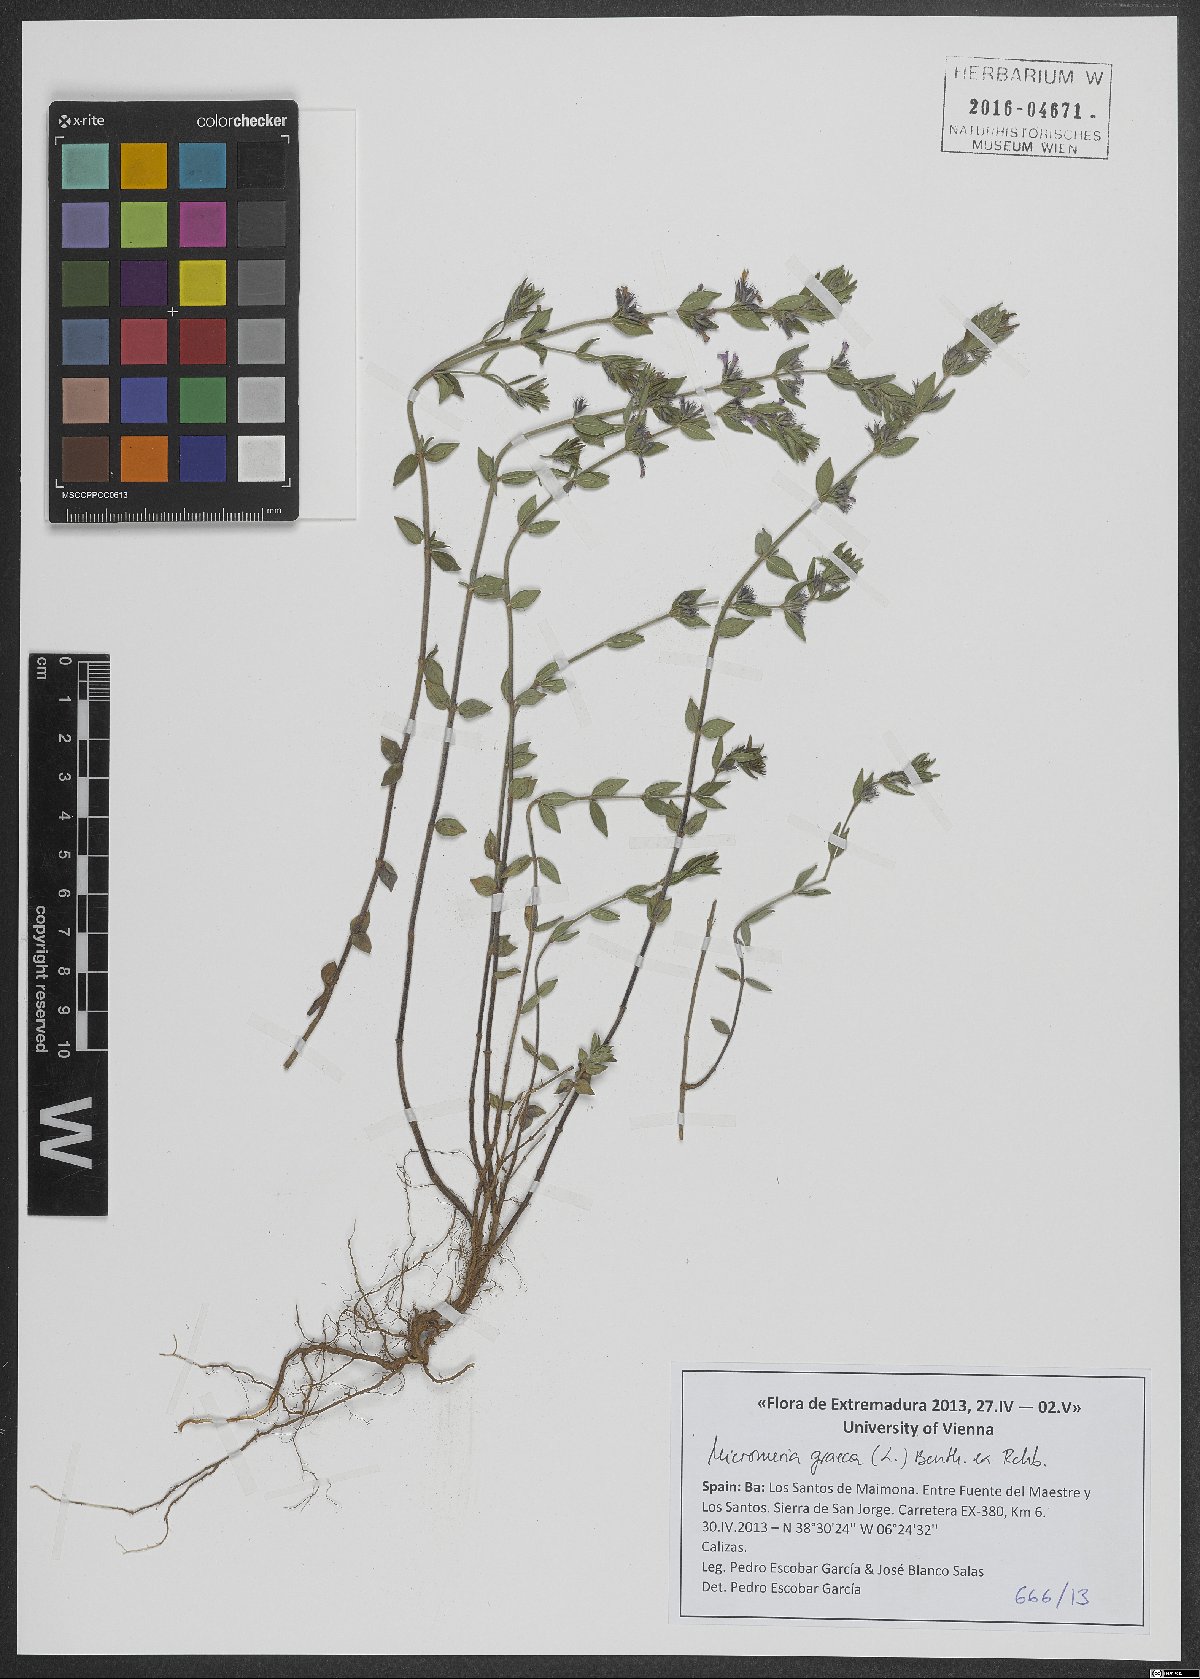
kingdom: Plantae
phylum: Tracheophyta
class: Magnoliopsida
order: Lamiales
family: Lamiaceae
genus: Micromeria
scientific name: Micromeria graeca
